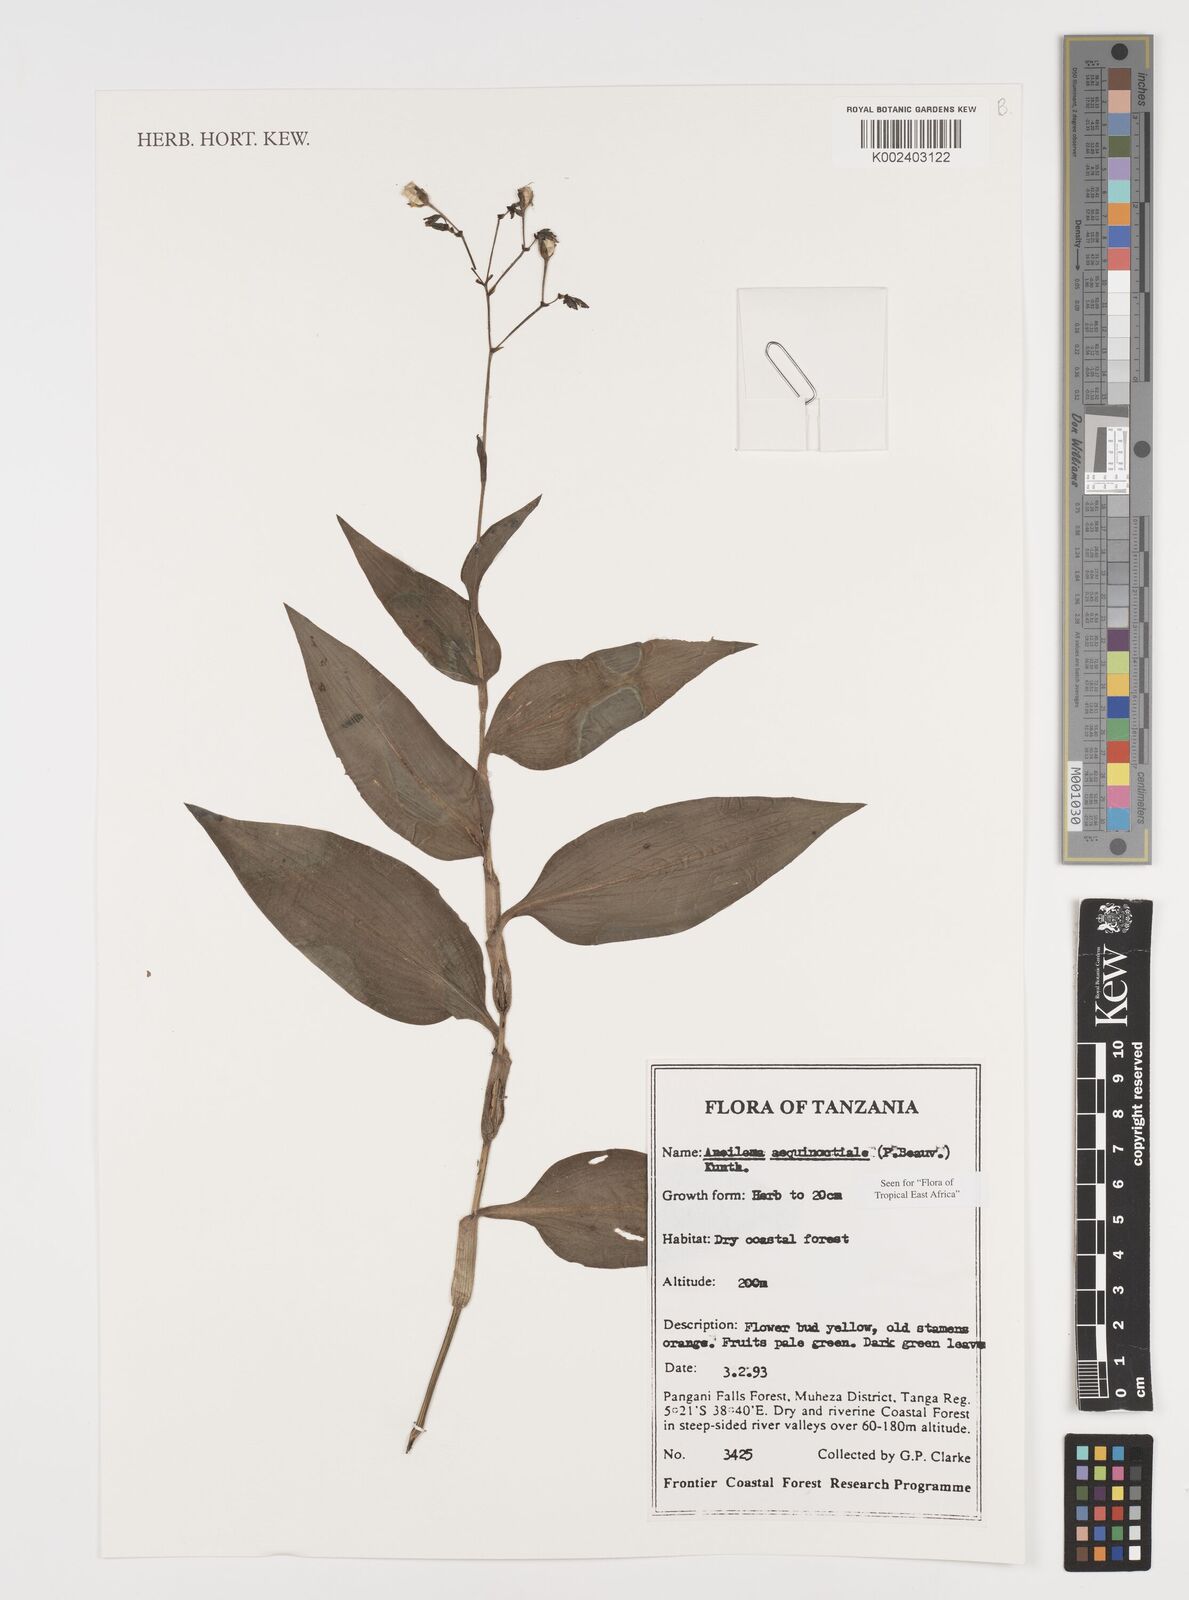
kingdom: Plantae
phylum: Tracheophyta
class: Liliopsida
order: Commelinales
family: Commelinaceae
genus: Aneilema
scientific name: Aneilema aequinoctiale
